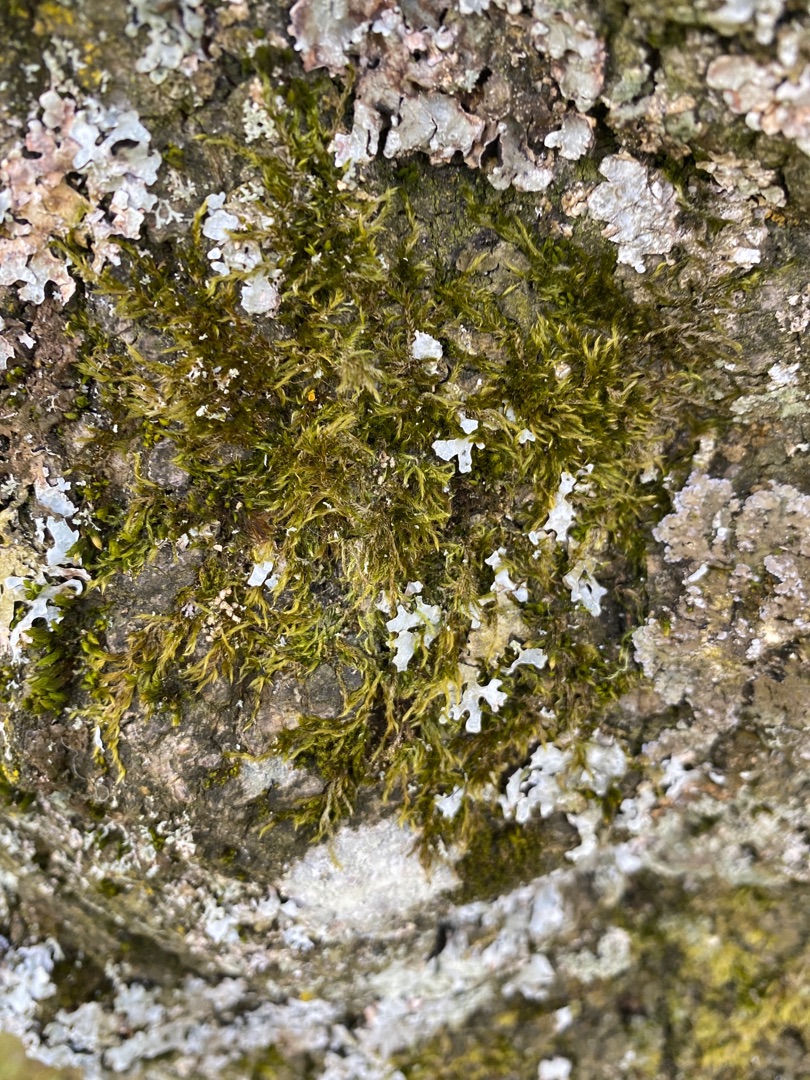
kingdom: Plantae
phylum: Bryophyta
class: Bryopsida
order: Hypnales
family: Hypnaceae
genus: Hypnum
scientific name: Hypnum
